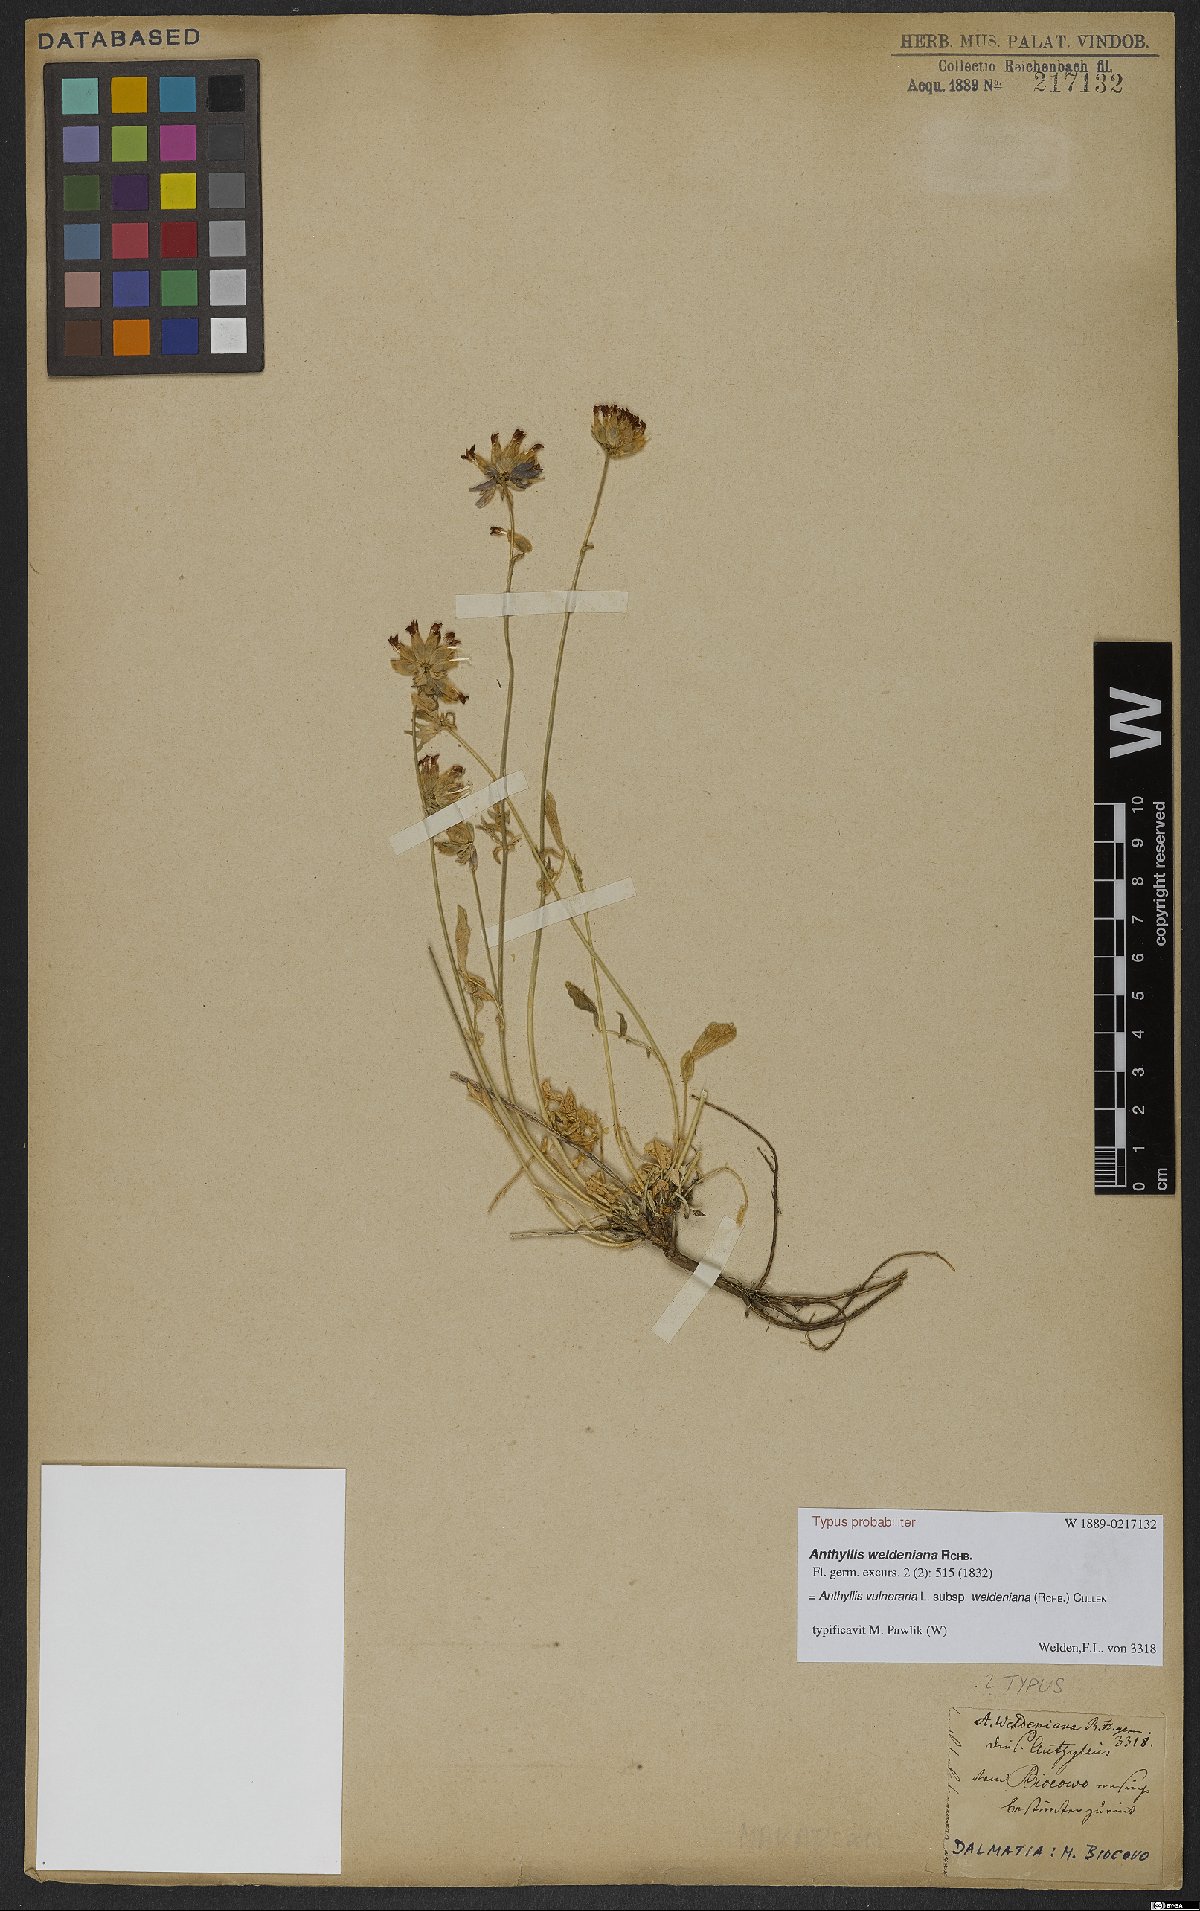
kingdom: Plantae
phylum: Tracheophyta
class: Magnoliopsida
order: Fabales
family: Fabaceae
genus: Anthyllis
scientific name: Anthyllis vulneraria
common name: Kidney vetch
